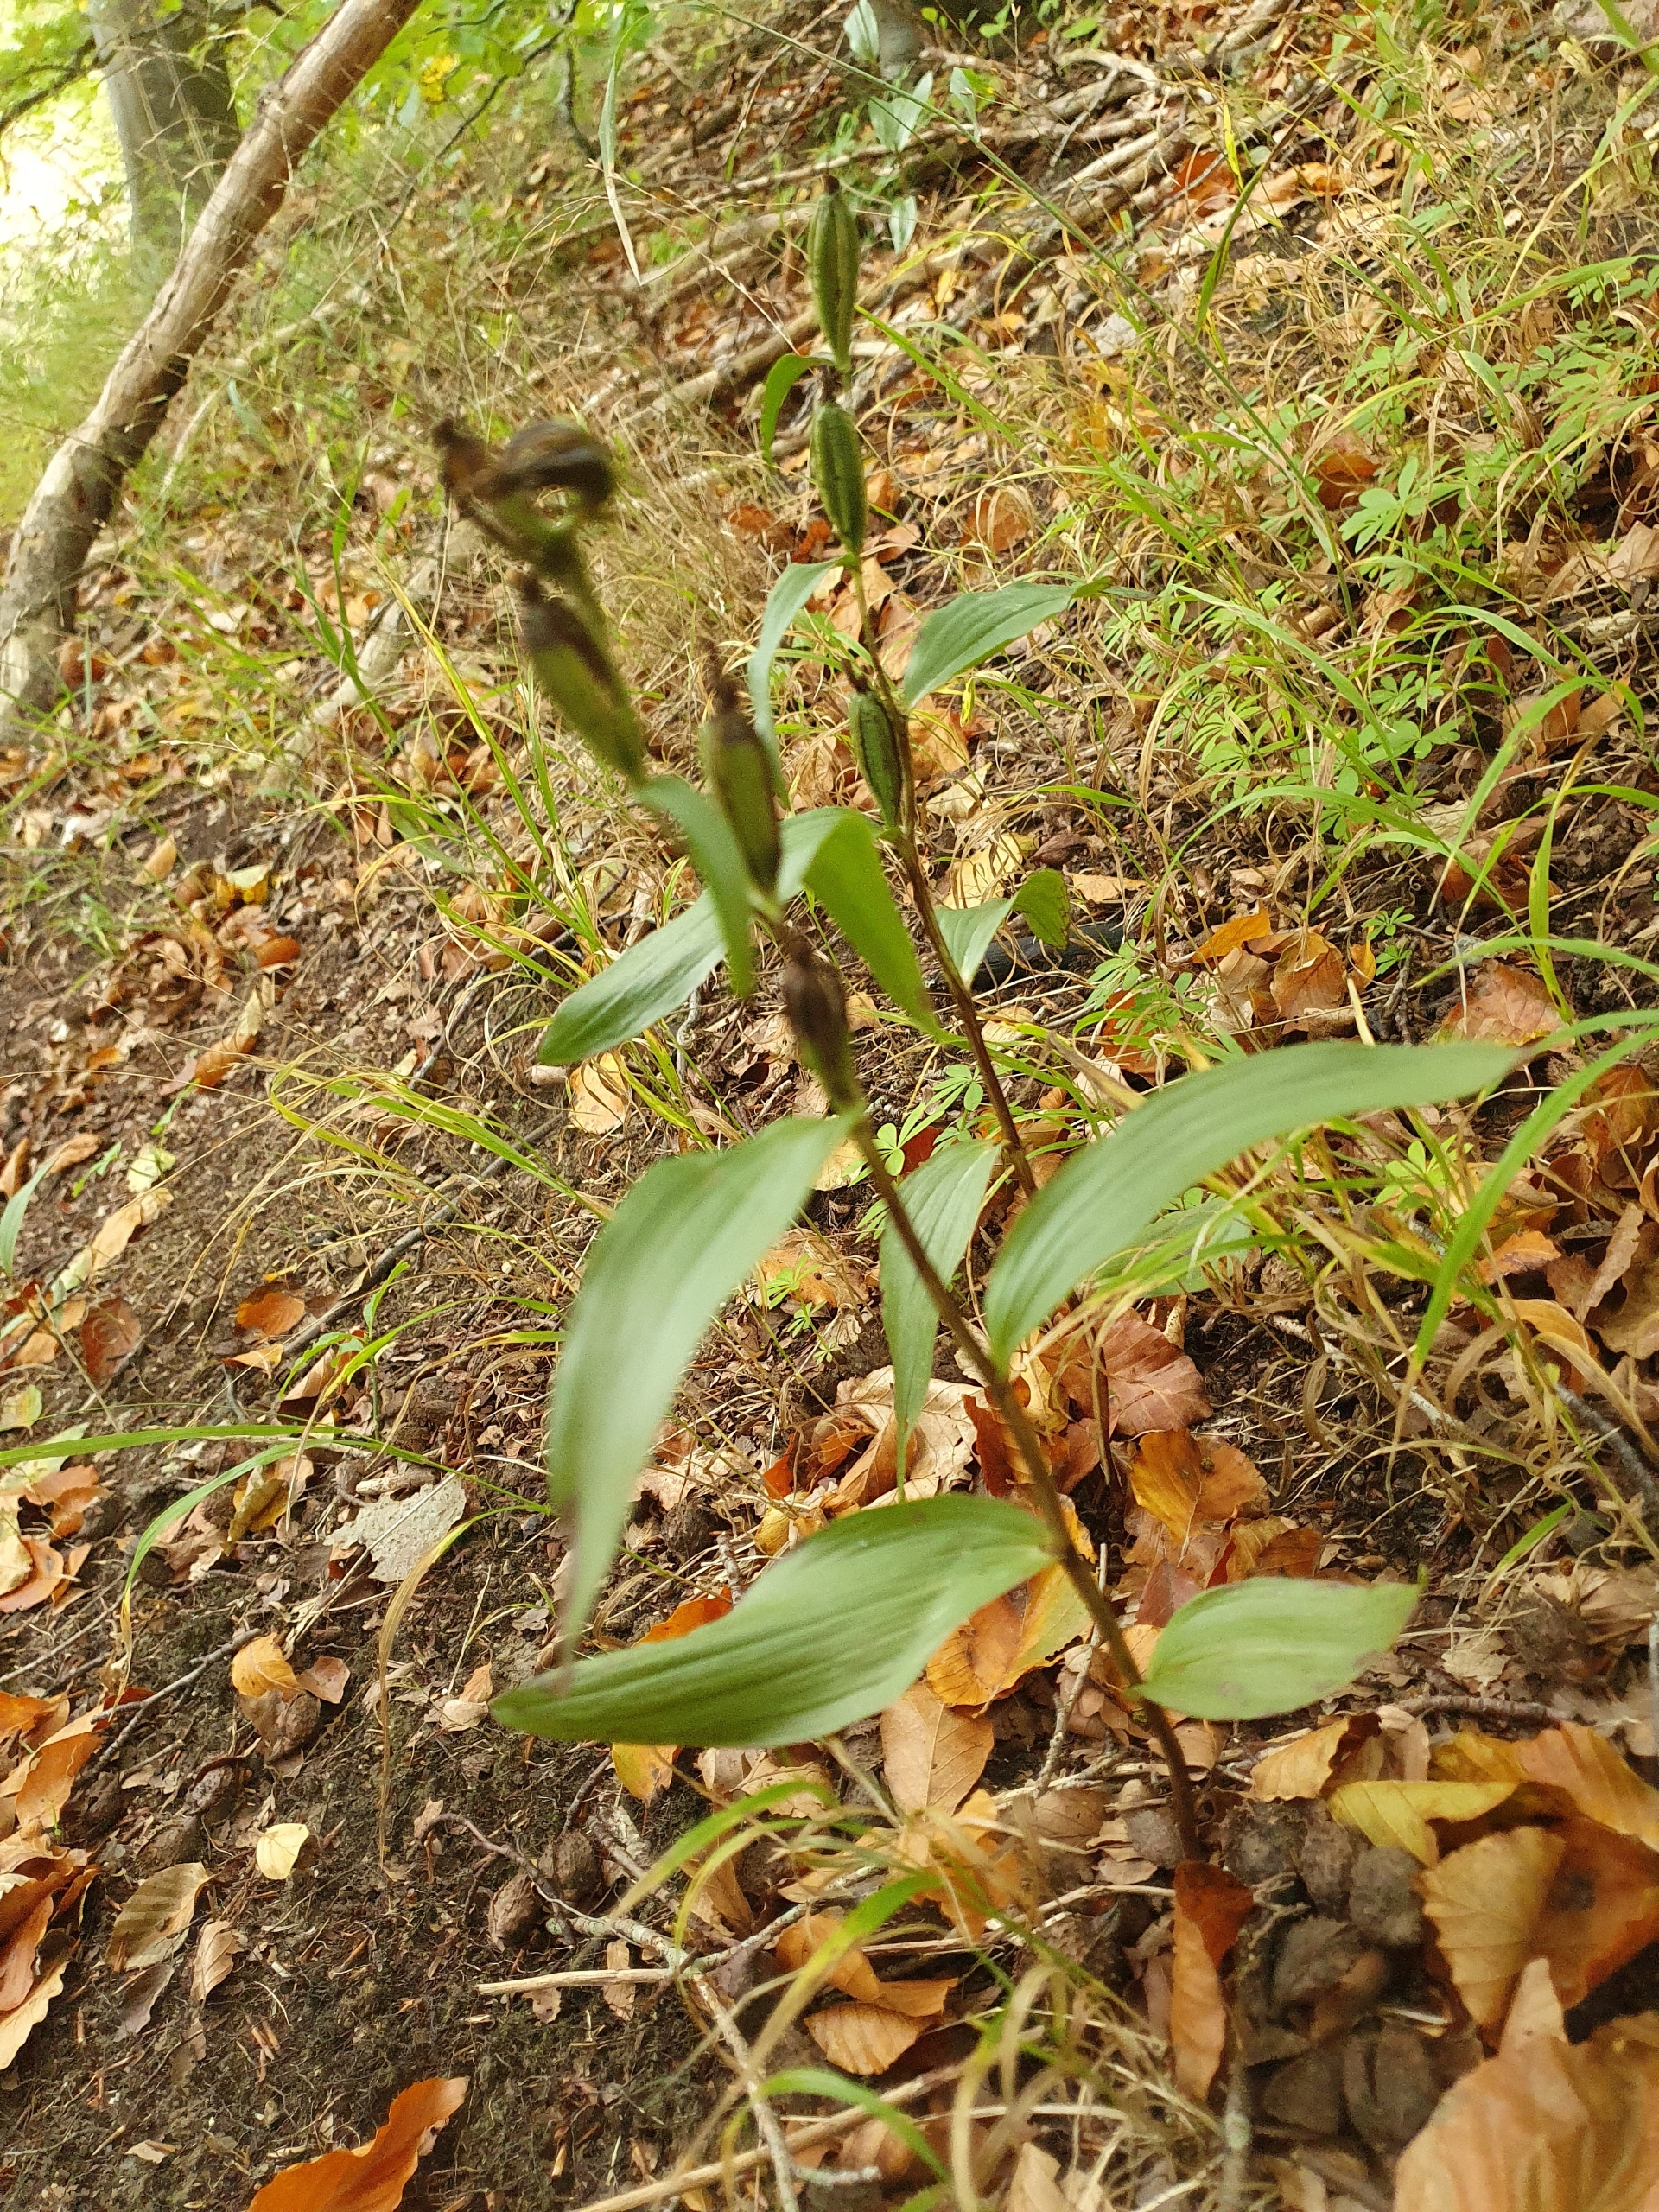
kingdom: Plantae
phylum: Tracheophyta
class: Liliopsida
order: Asparagales
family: Orchidaceae
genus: Cephalanthera
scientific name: Cephalanthera damasonium
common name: Hvidgul skovlilje
